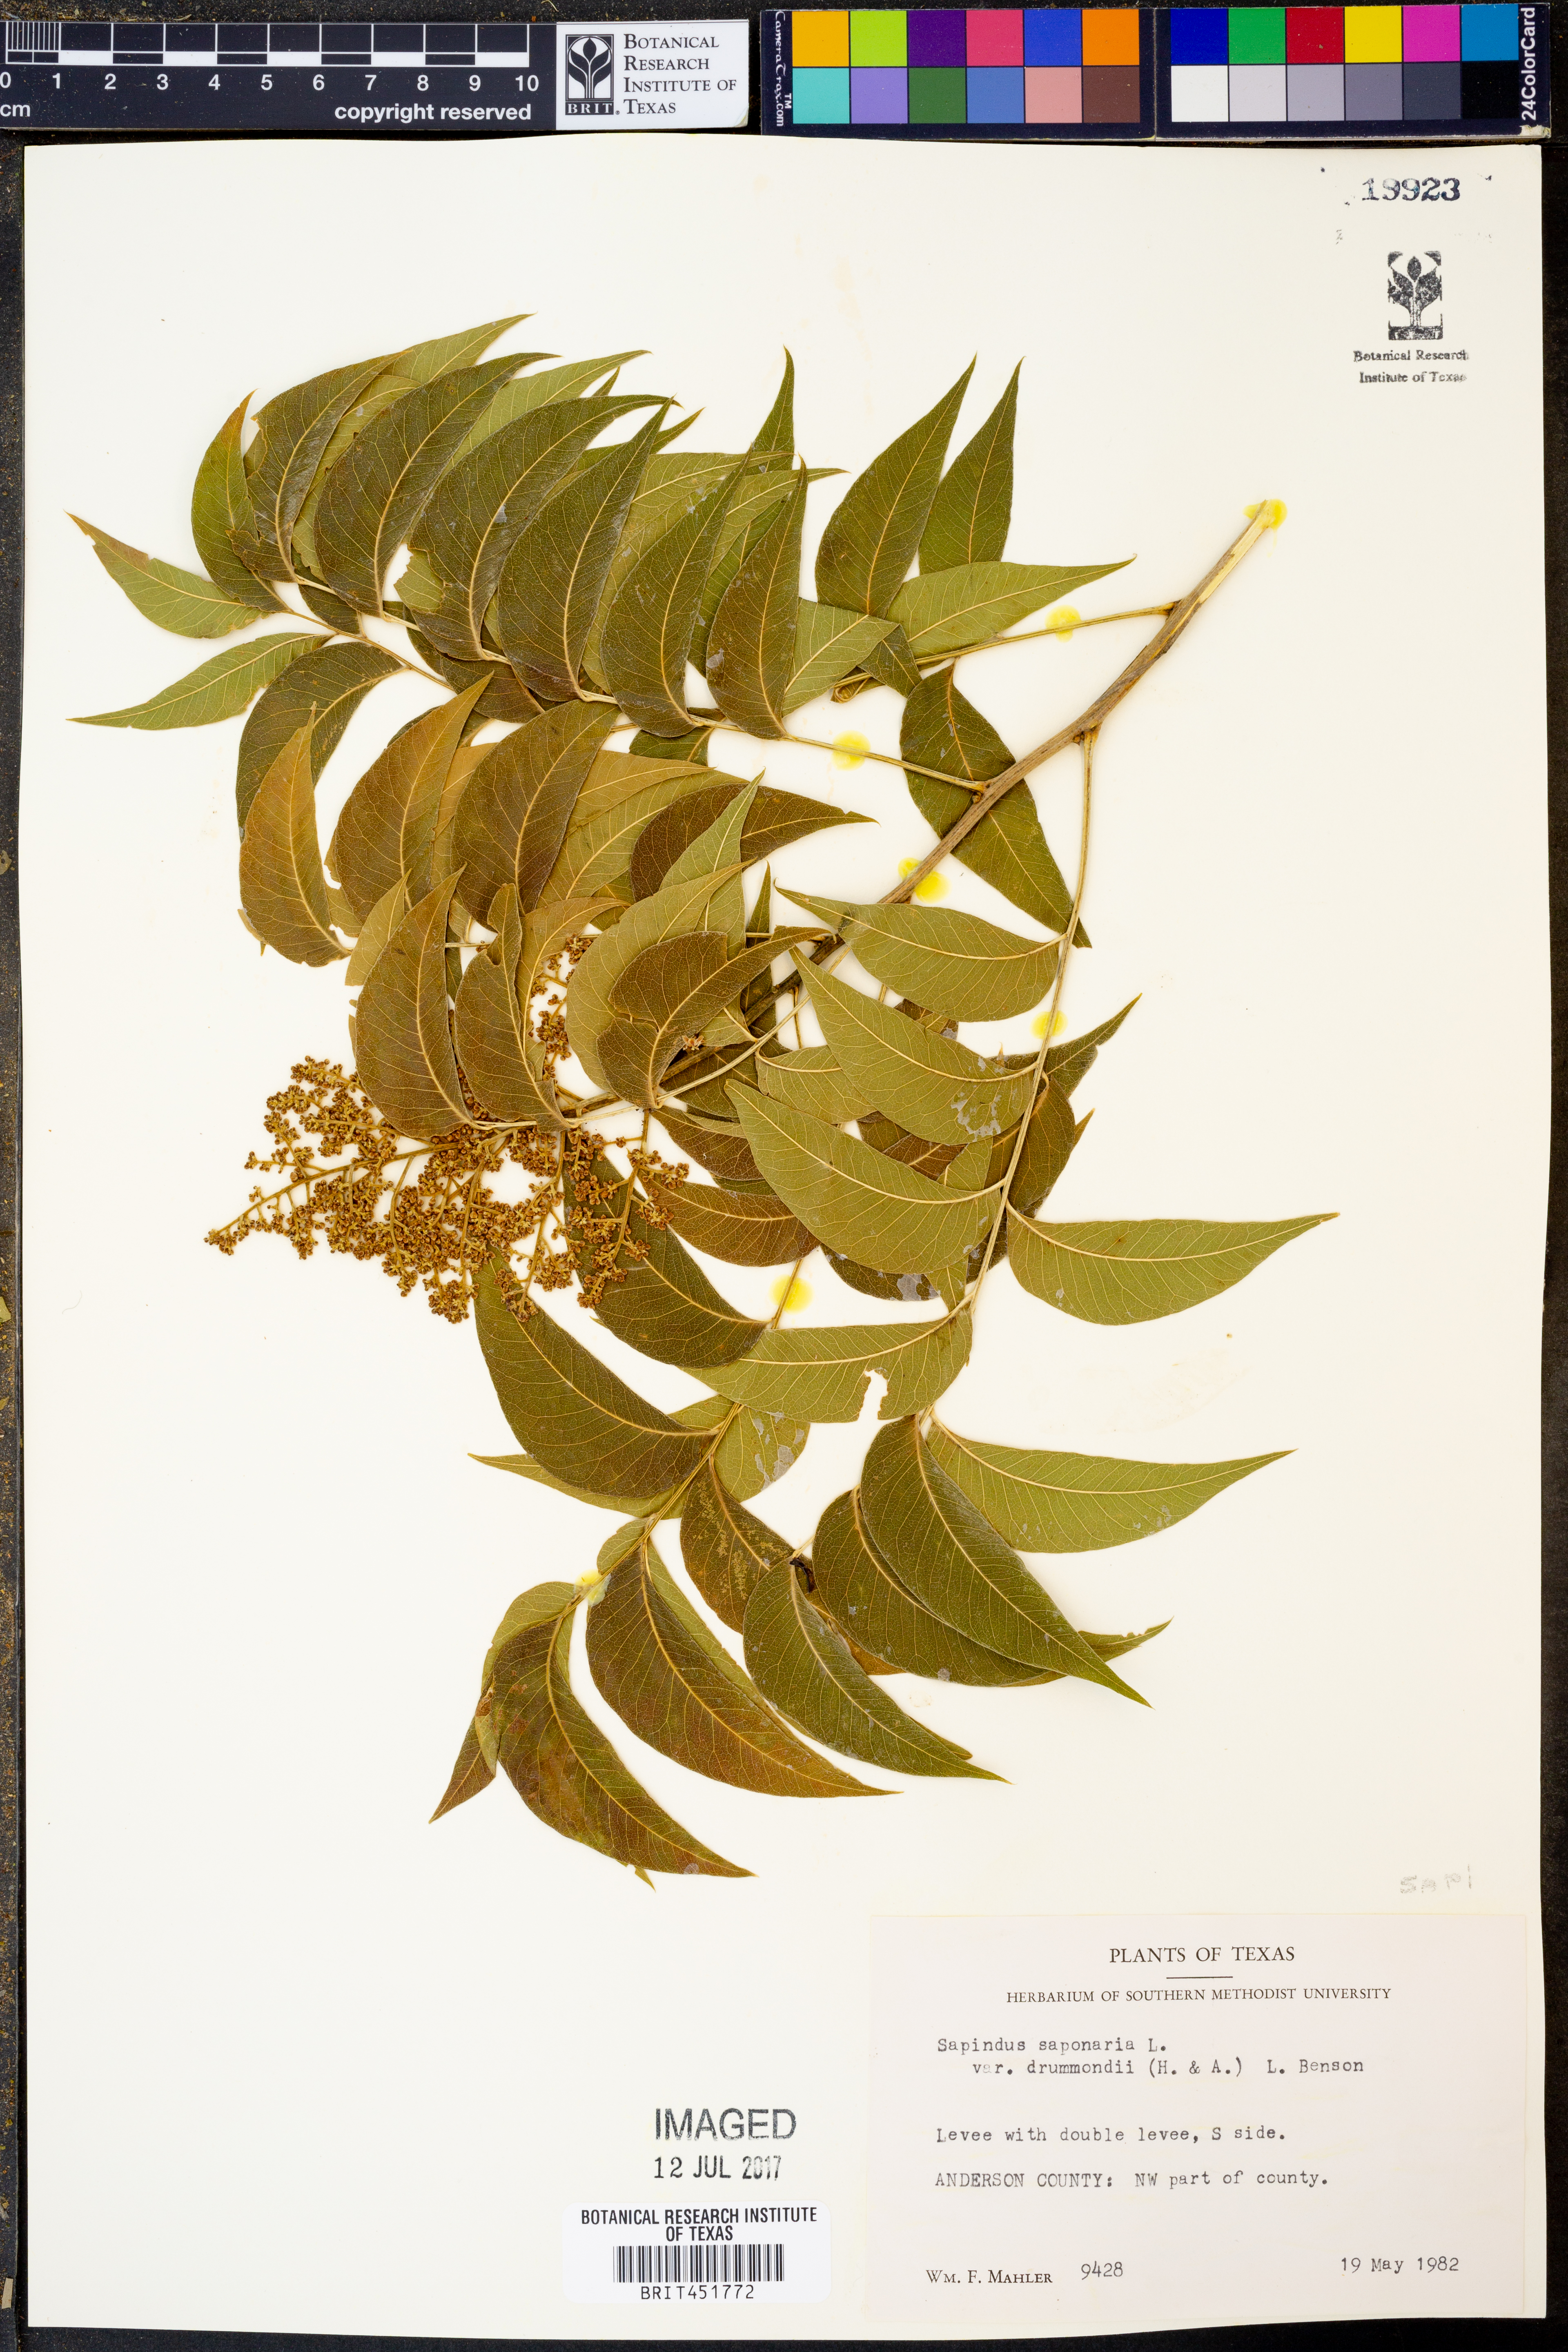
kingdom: Plantae
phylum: Tracheophyta
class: Magnoliopsida
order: Sapindales
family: Sapindaceae
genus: Sapindus
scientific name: Sapindus drummondii
